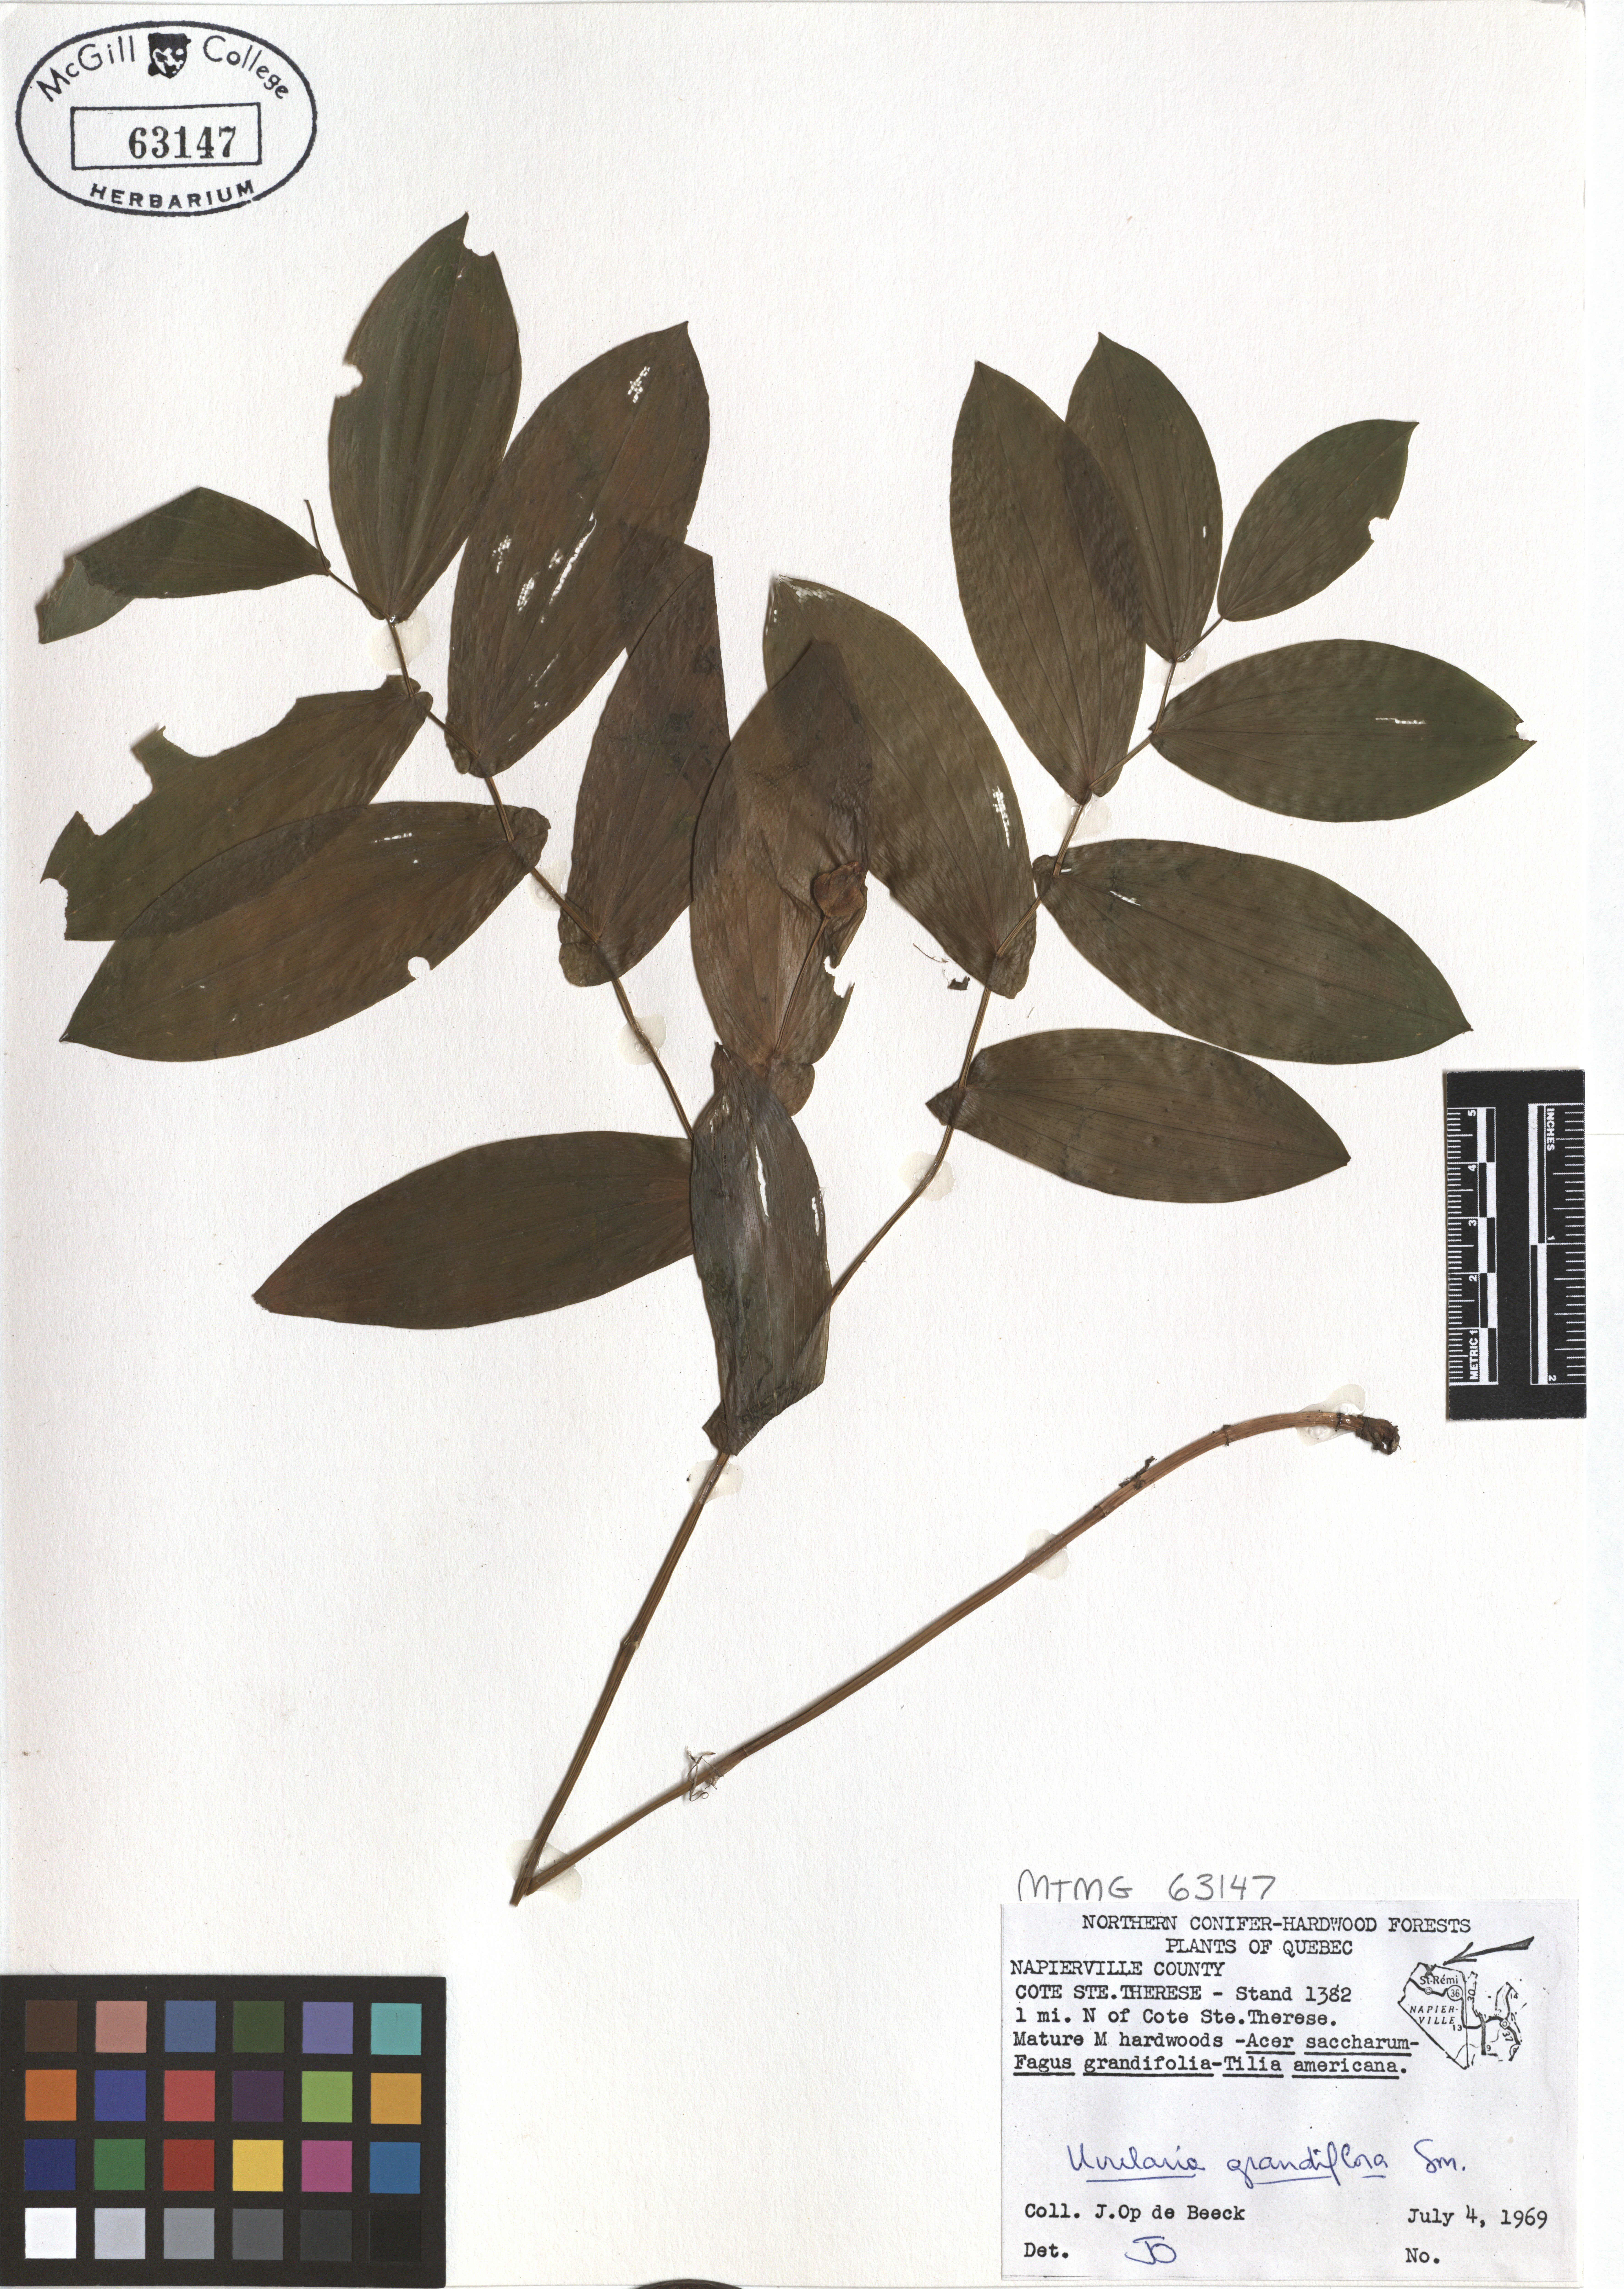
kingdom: Plantae
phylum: Tracheophyta
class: Liliopsida
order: Liliales
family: Colchicaceae
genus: Uvularia
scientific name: Uvularia grandiflora
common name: Bellwort
